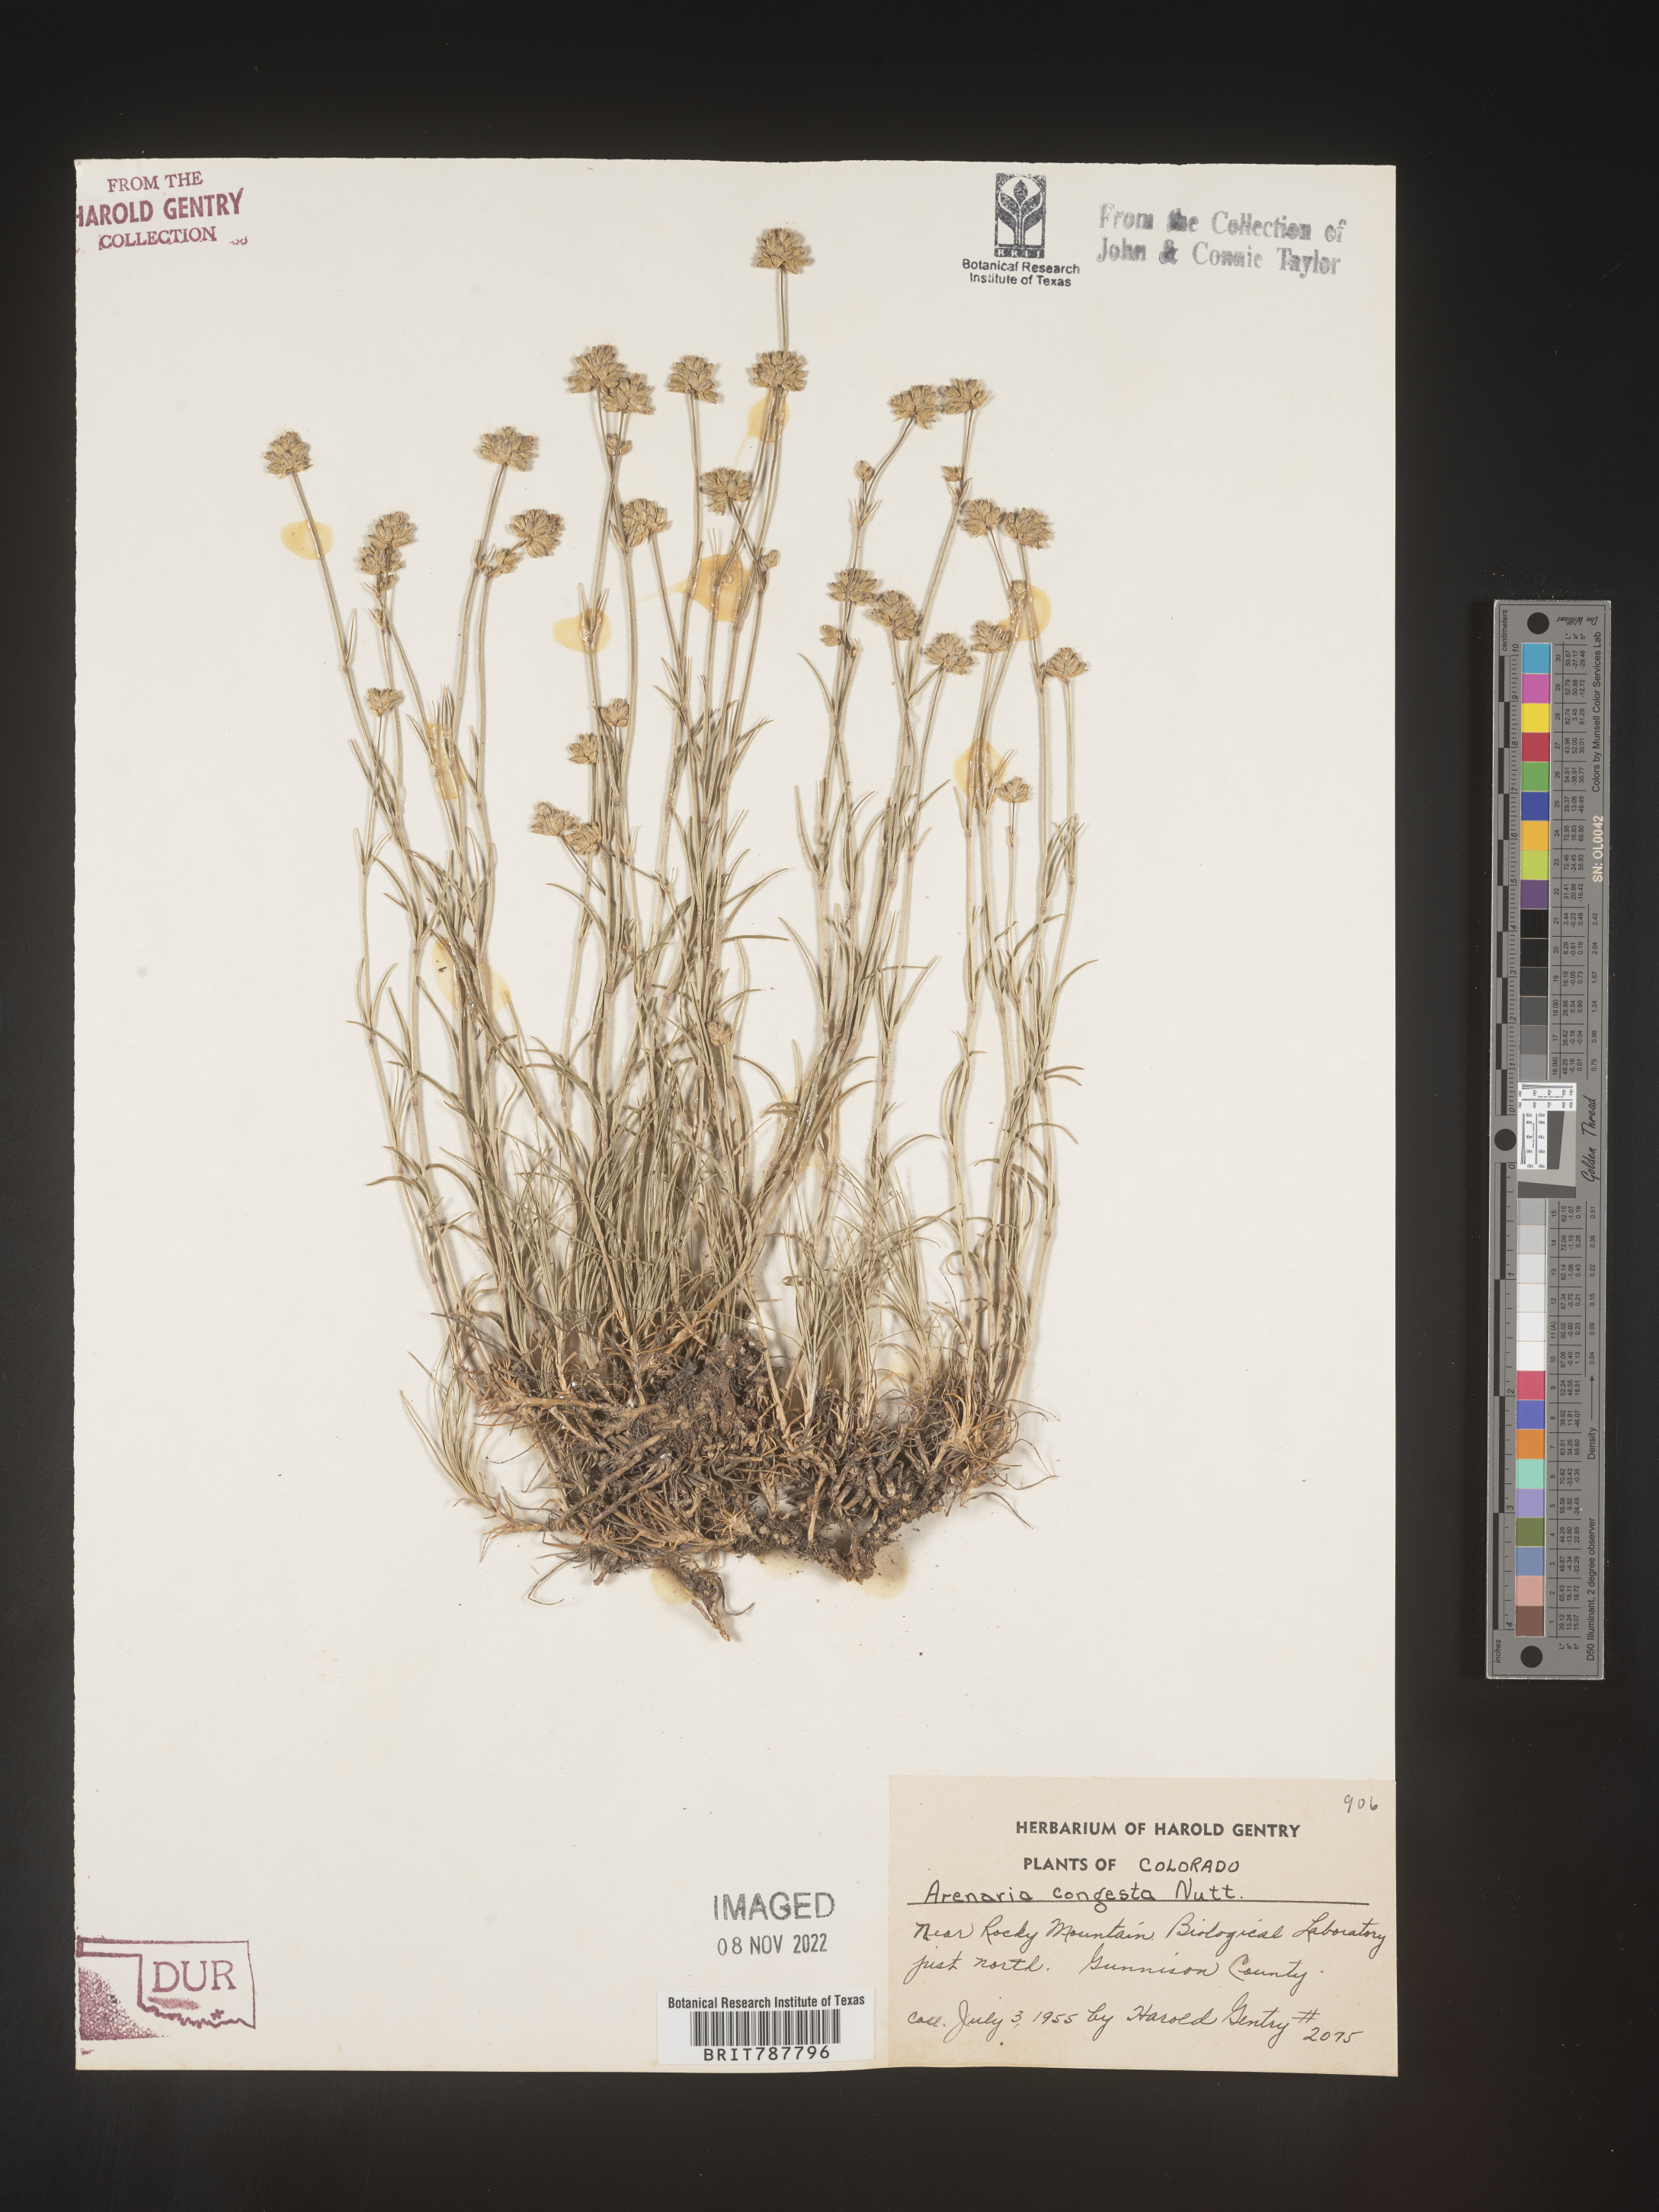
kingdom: Plantae
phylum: Tracheophyta
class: Magnoliopsida
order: Caryophyllales
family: Caryophyllaceae
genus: Eremogone
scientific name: Eremogone congesta
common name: Ballhead sandwort
